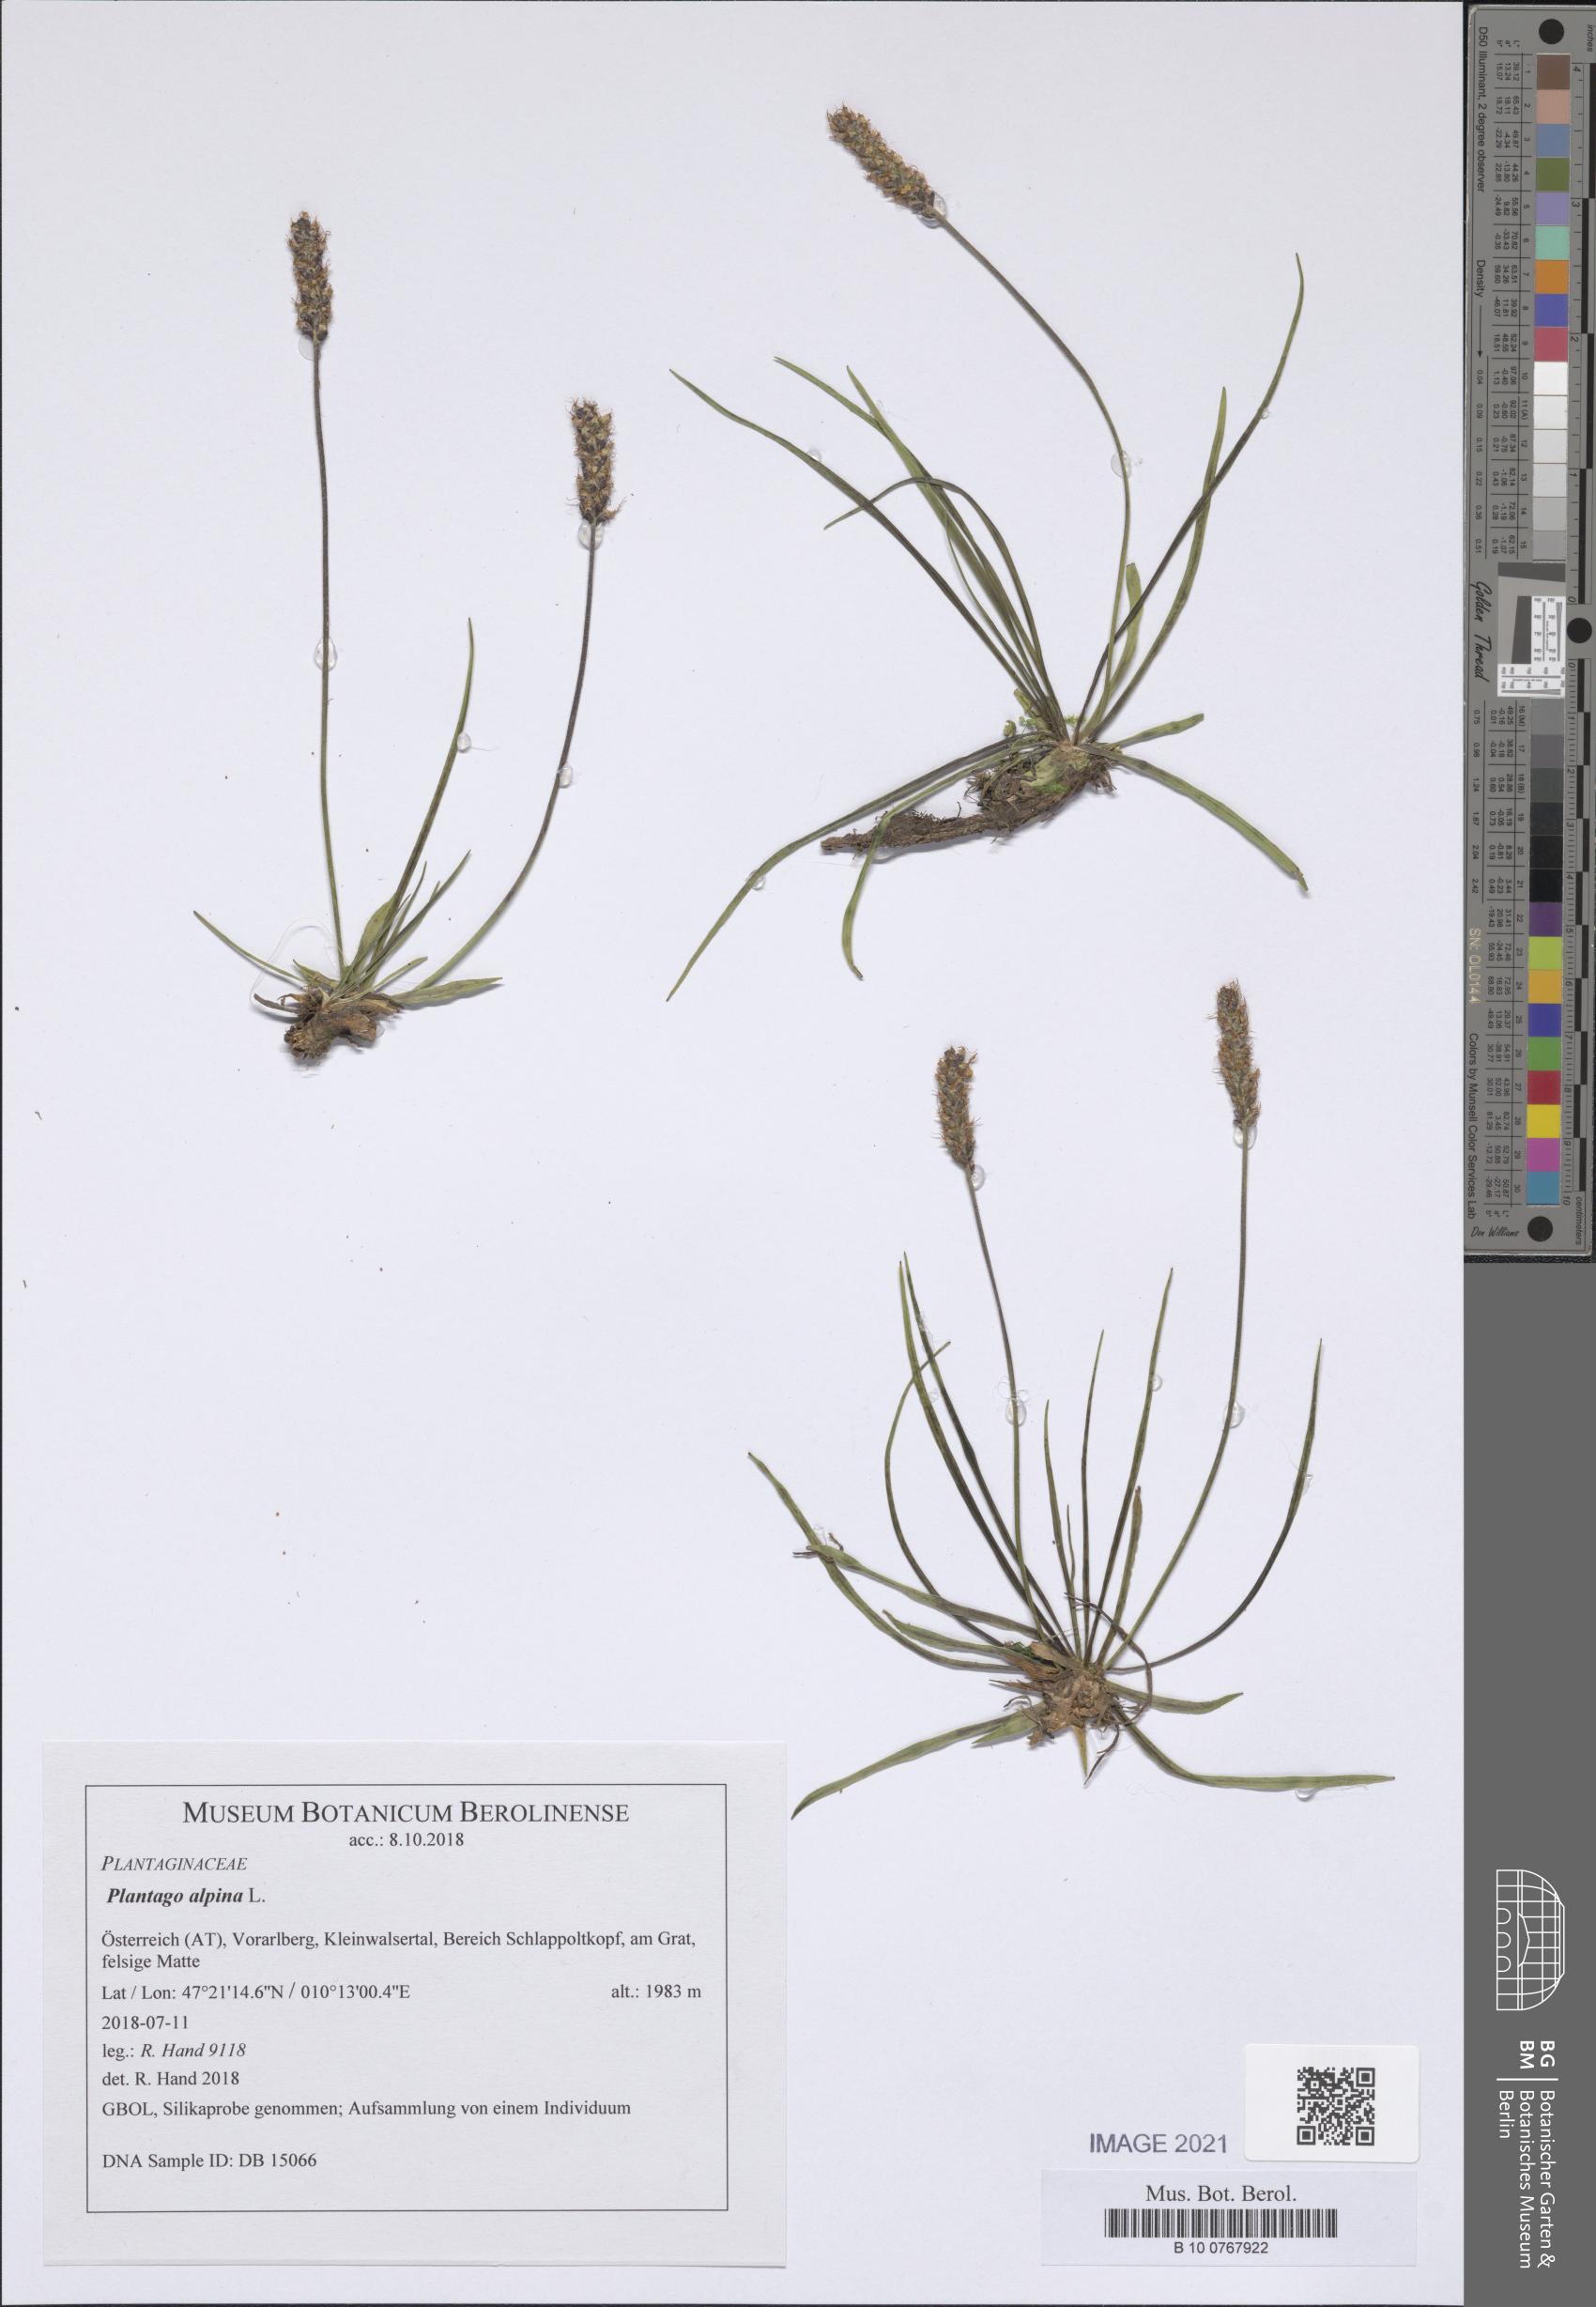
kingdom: Plantae
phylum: Tracheophyta
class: Magnoliopsida
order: Lamiales
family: Plantaginaceae
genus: Plantago
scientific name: Plantago alpina
